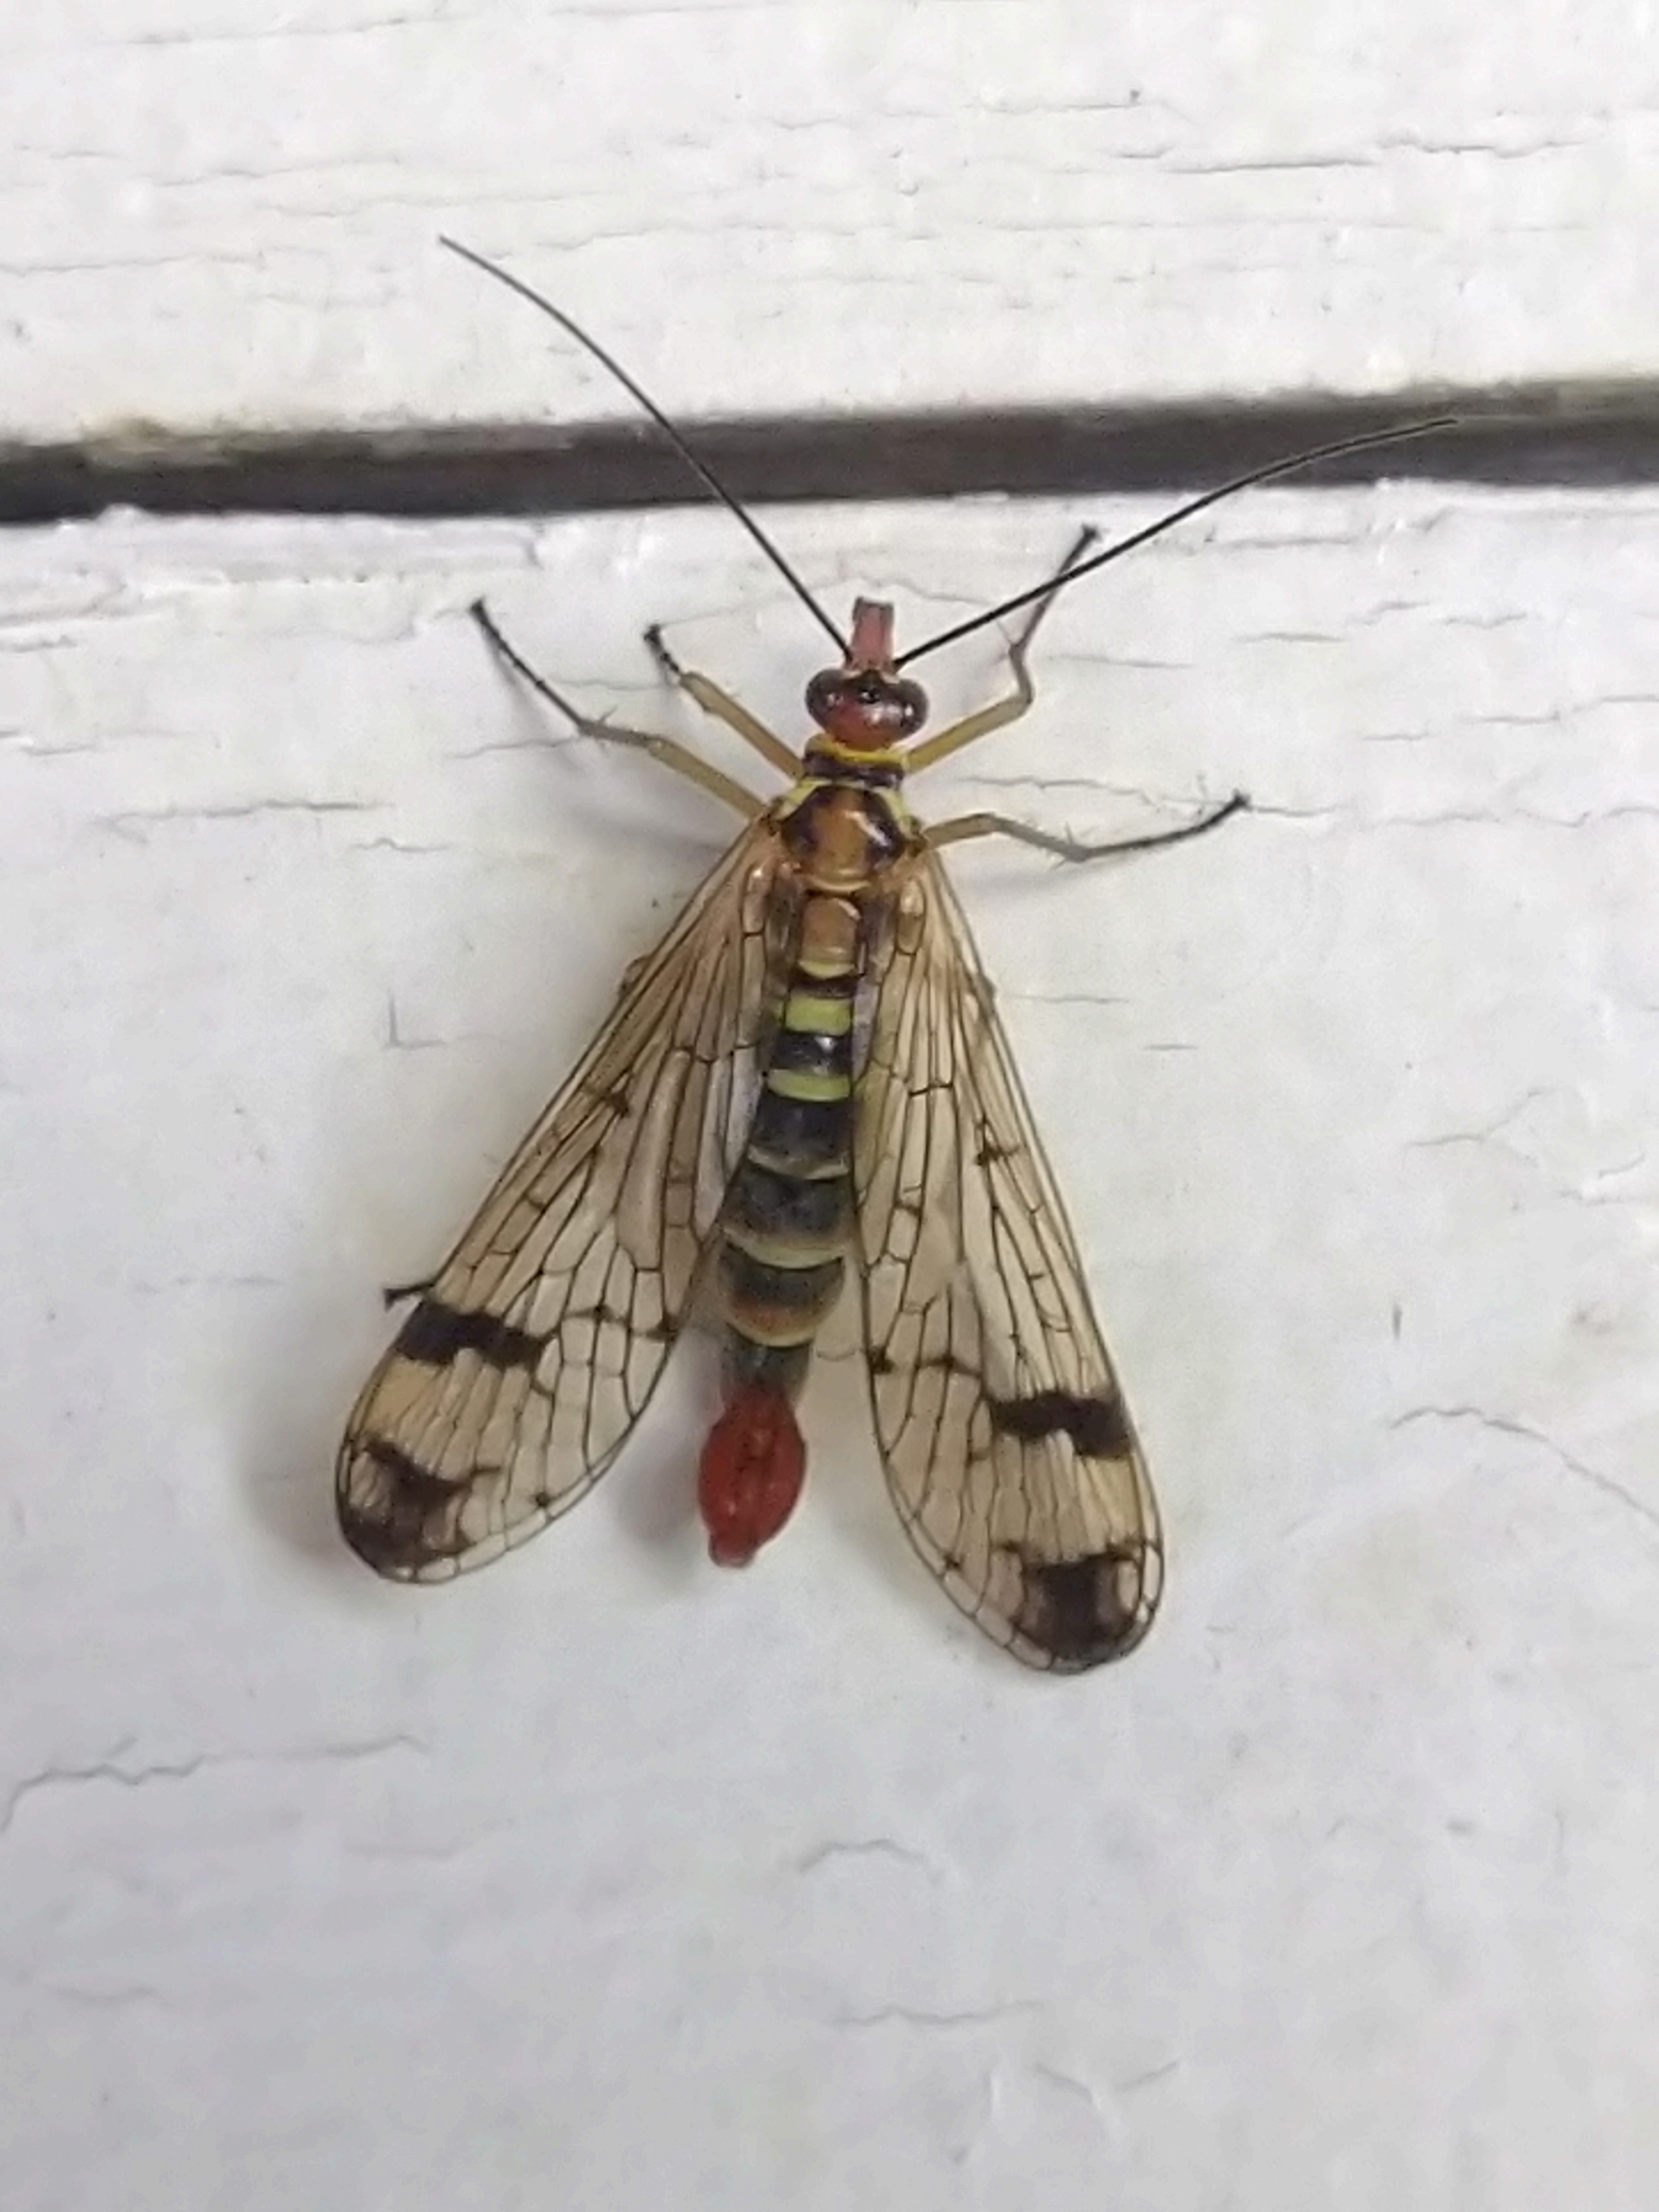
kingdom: Animalia
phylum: Arthropoda
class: Insecta
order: Mecoptera
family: Panorpidae
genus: Panorpa
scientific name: Panorpa communis
